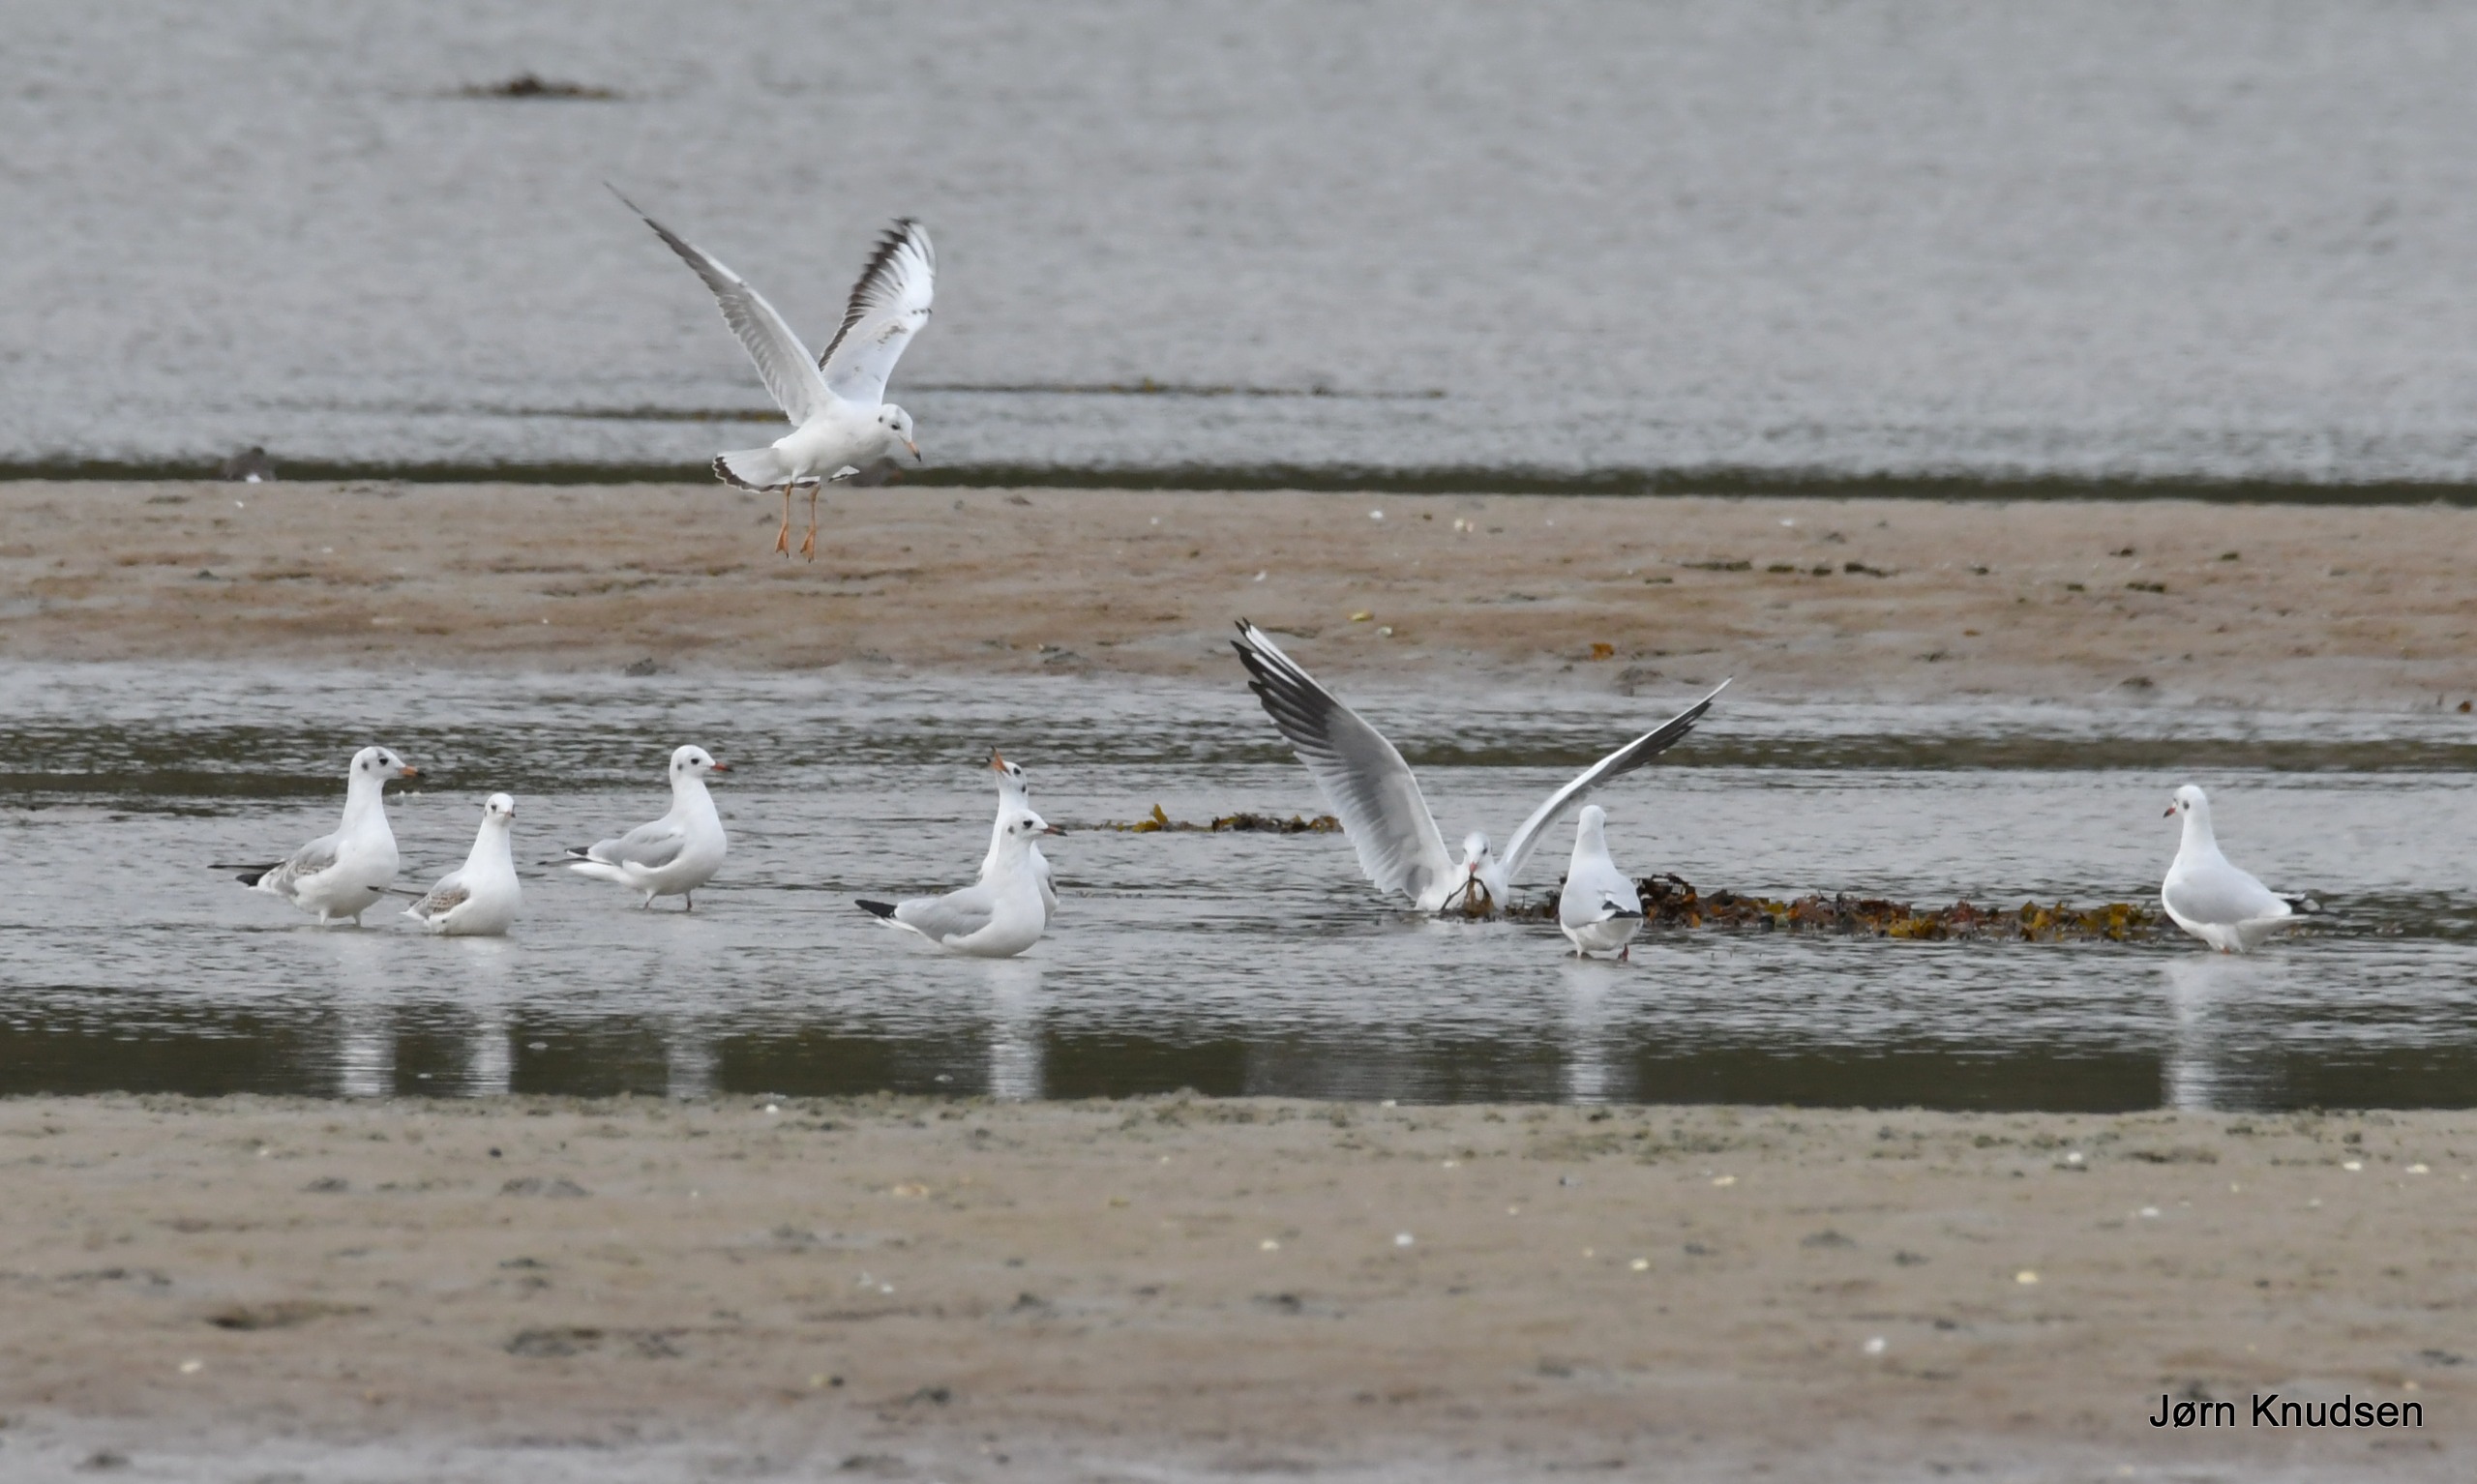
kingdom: Animalia
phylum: Chordata
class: Aves
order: Charadriiformes
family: Laridae
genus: Chroicocephalus
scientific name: Chroicocephalus ridibundus
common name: Hættemåge
